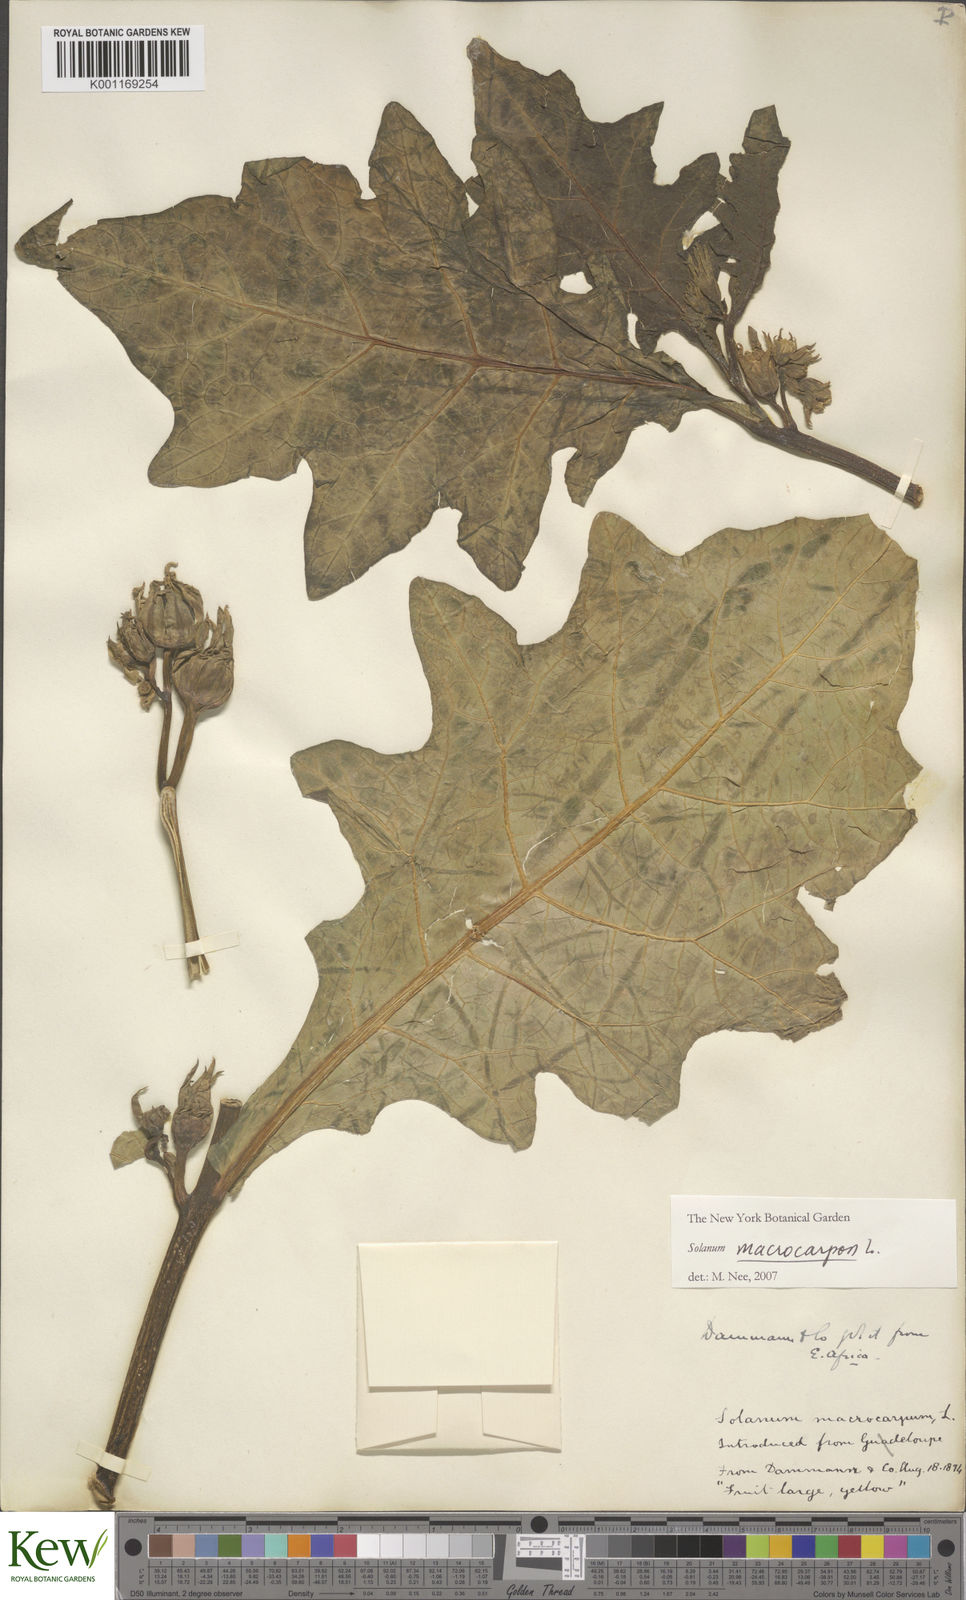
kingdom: Plantae
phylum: Tracheophyta
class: Magnoliopsida
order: Solanales
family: Solanaceae
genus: Solanum
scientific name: Solanum macrocarpon
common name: African eggplant
